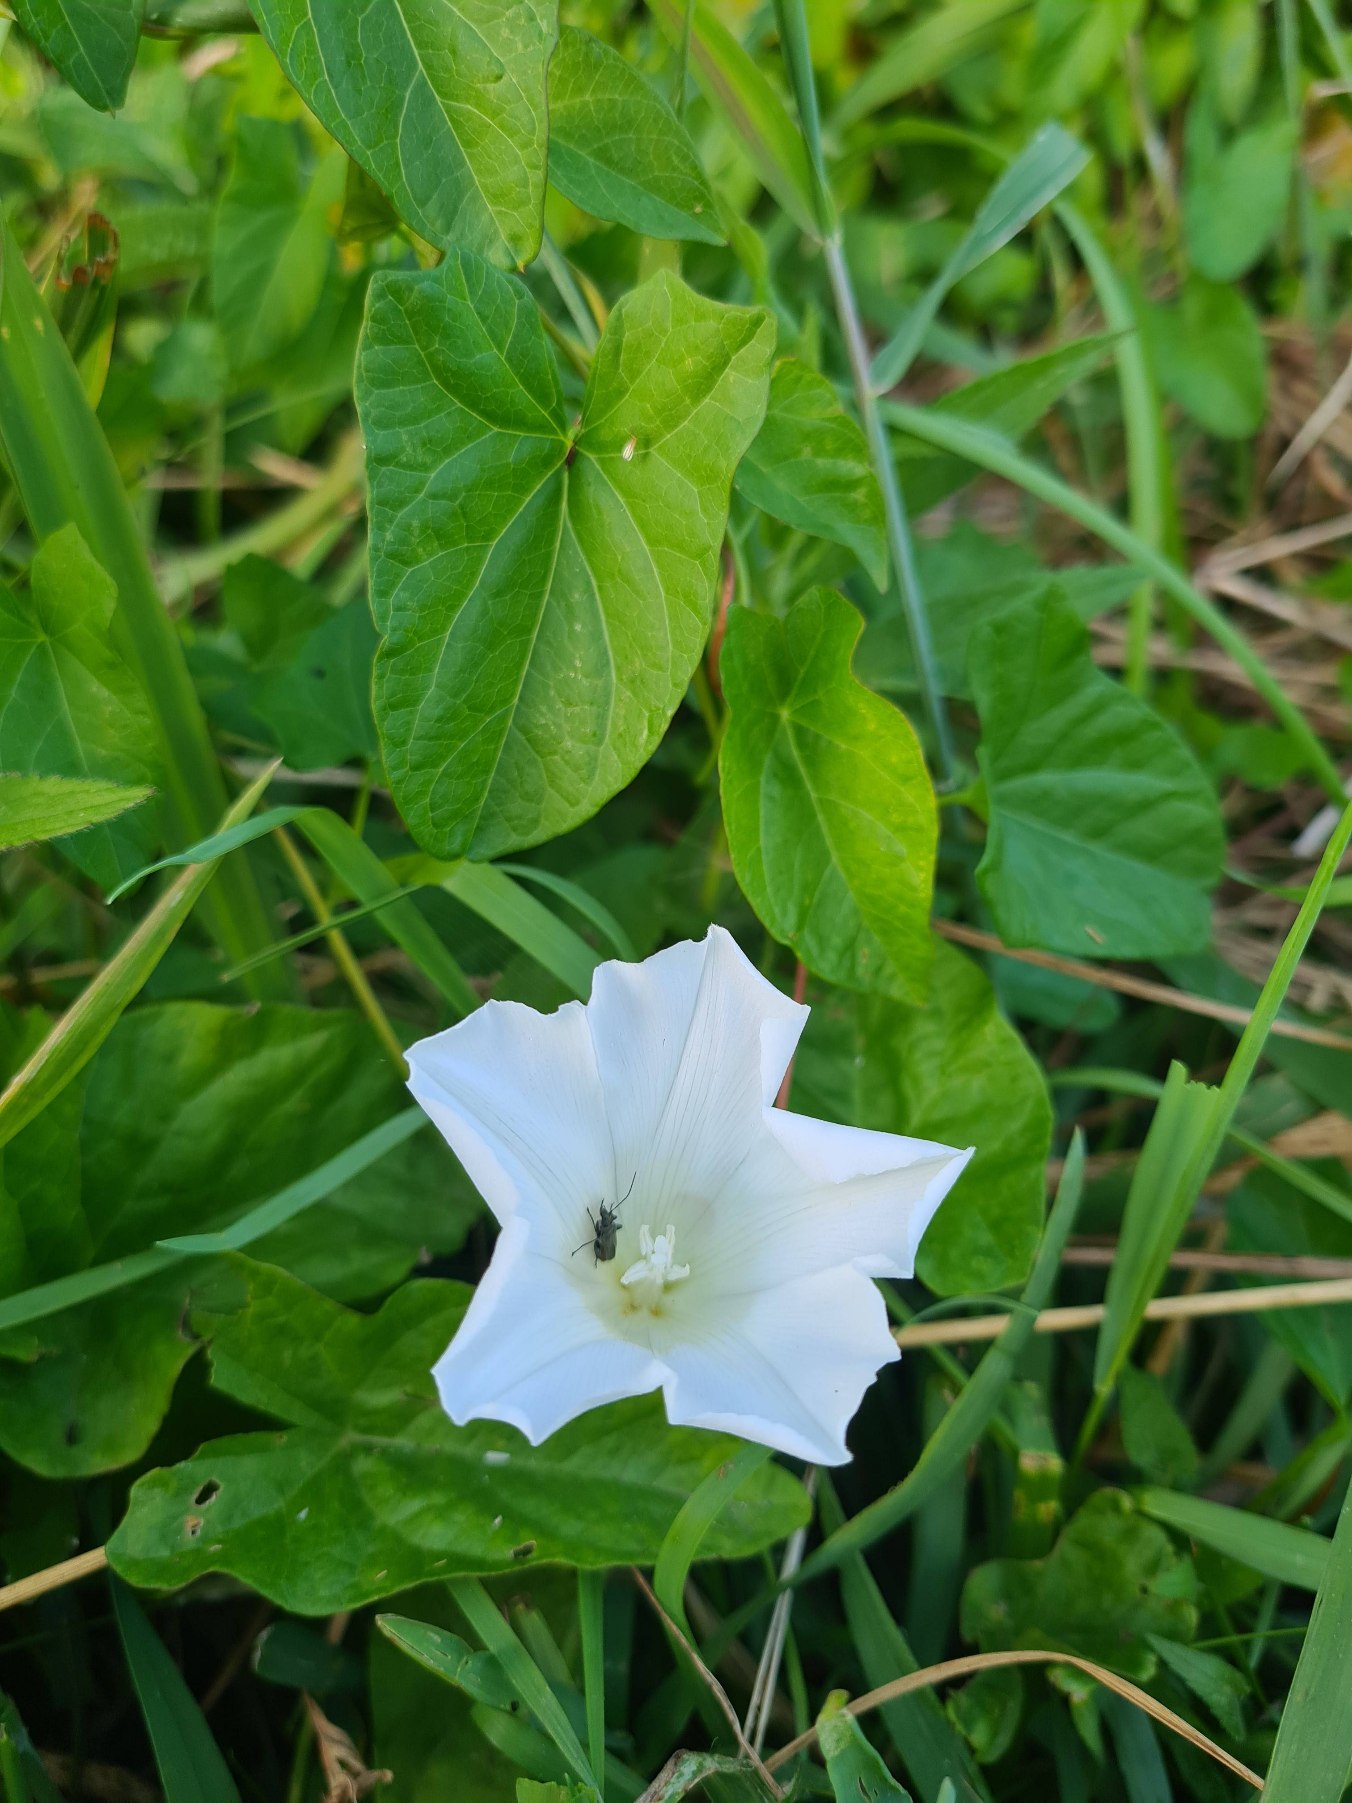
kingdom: Plantae
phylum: Tracheophyta
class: Magnoliopsida
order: Solanales
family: Convolvulaceae
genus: Calystegia
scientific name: Calystegia sepium
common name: Gærde-snerle
